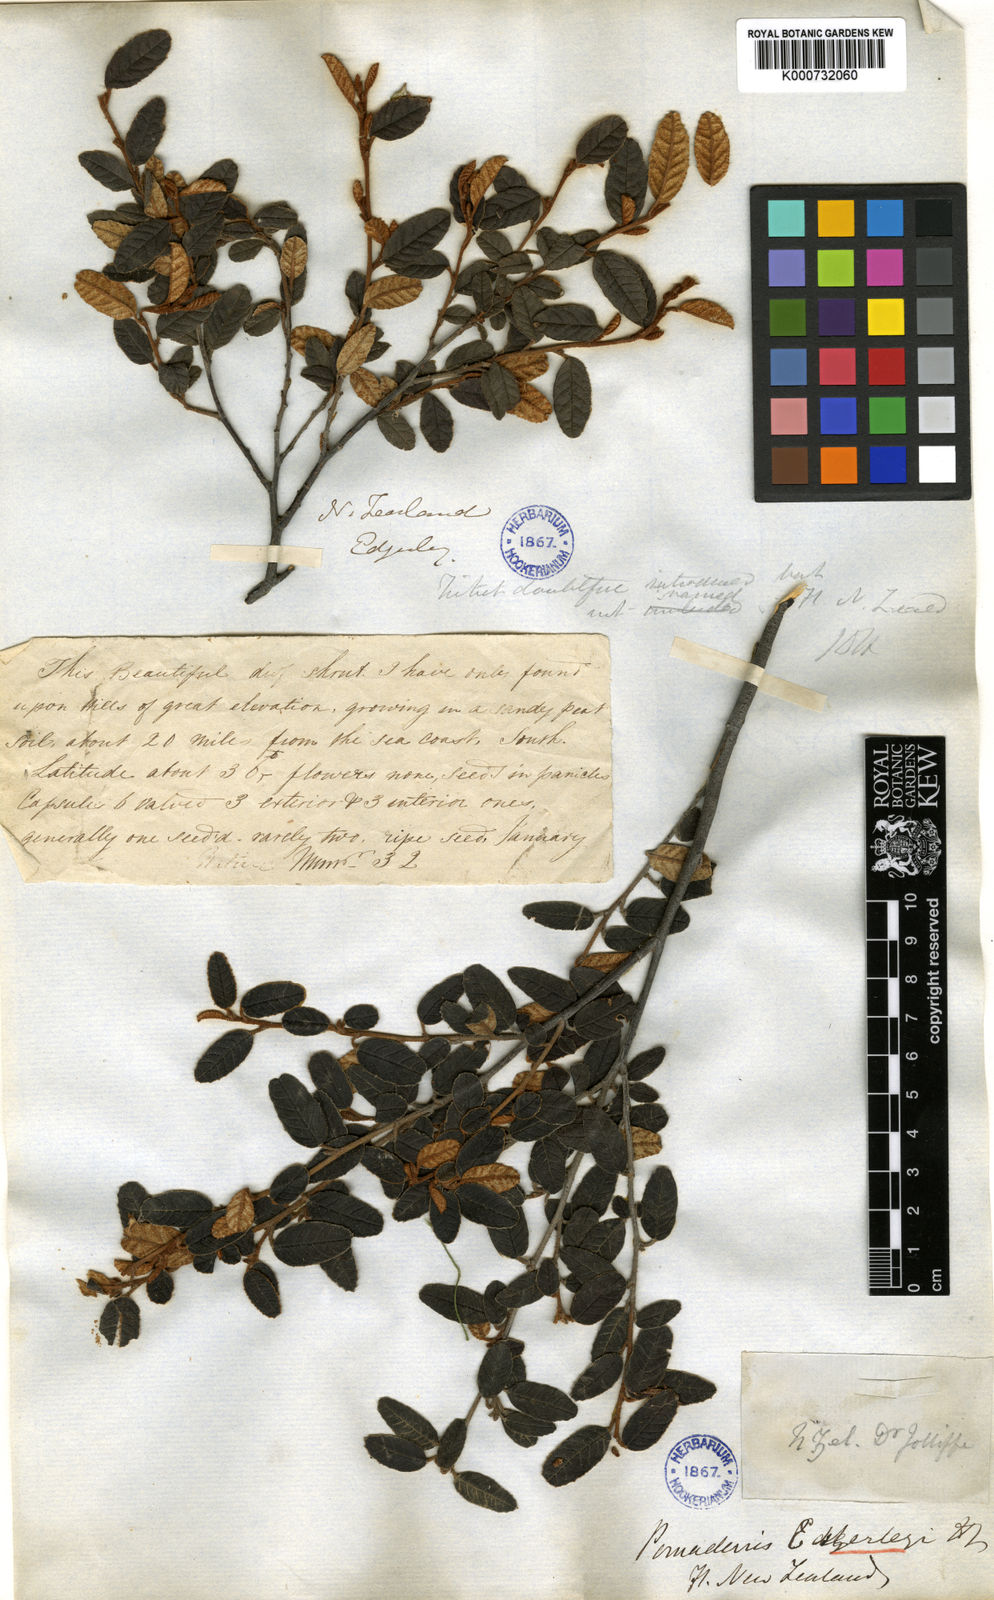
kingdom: Plantae
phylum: Tracheophyta
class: Magnoliopsida
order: Rosales
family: Rhamnaceae
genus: Pomaderris
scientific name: Pomaderris
